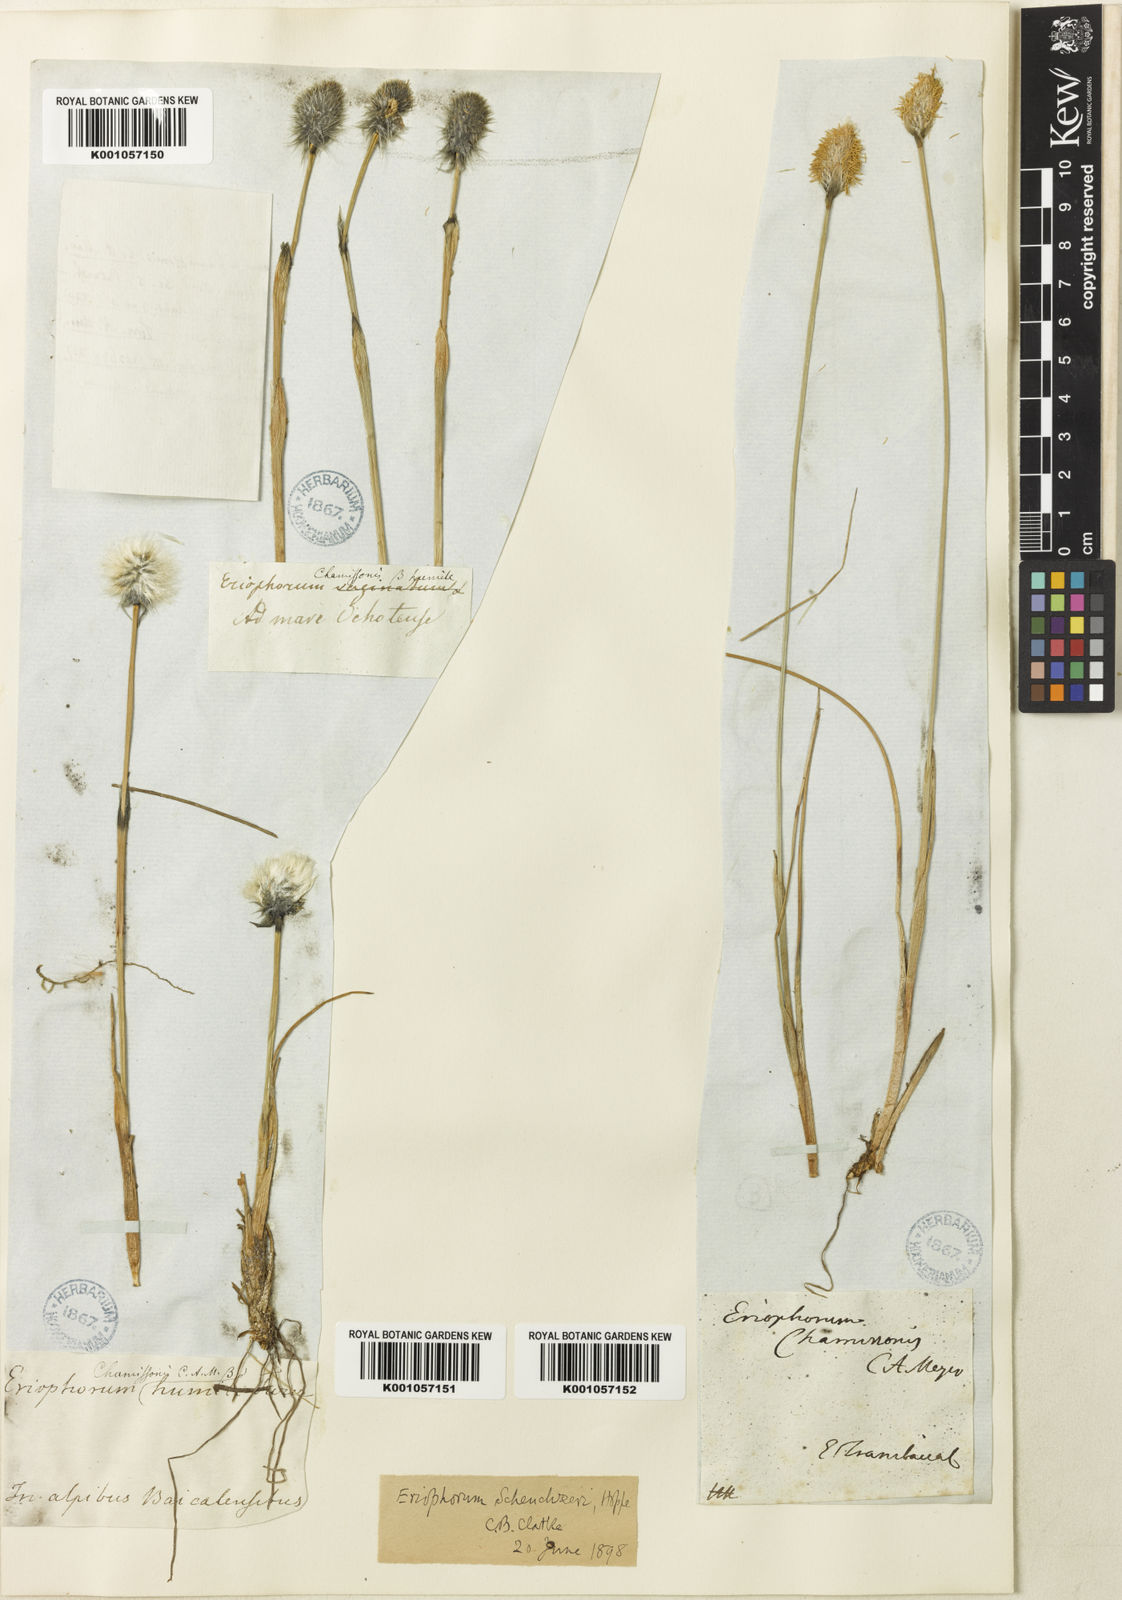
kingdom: Plantae
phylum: Tracheophyta
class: Liliopsida
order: Poales
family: Cyperaceae
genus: Eriophorum
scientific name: Eriophorum chamissonis
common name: Chamisso's cottongrass
